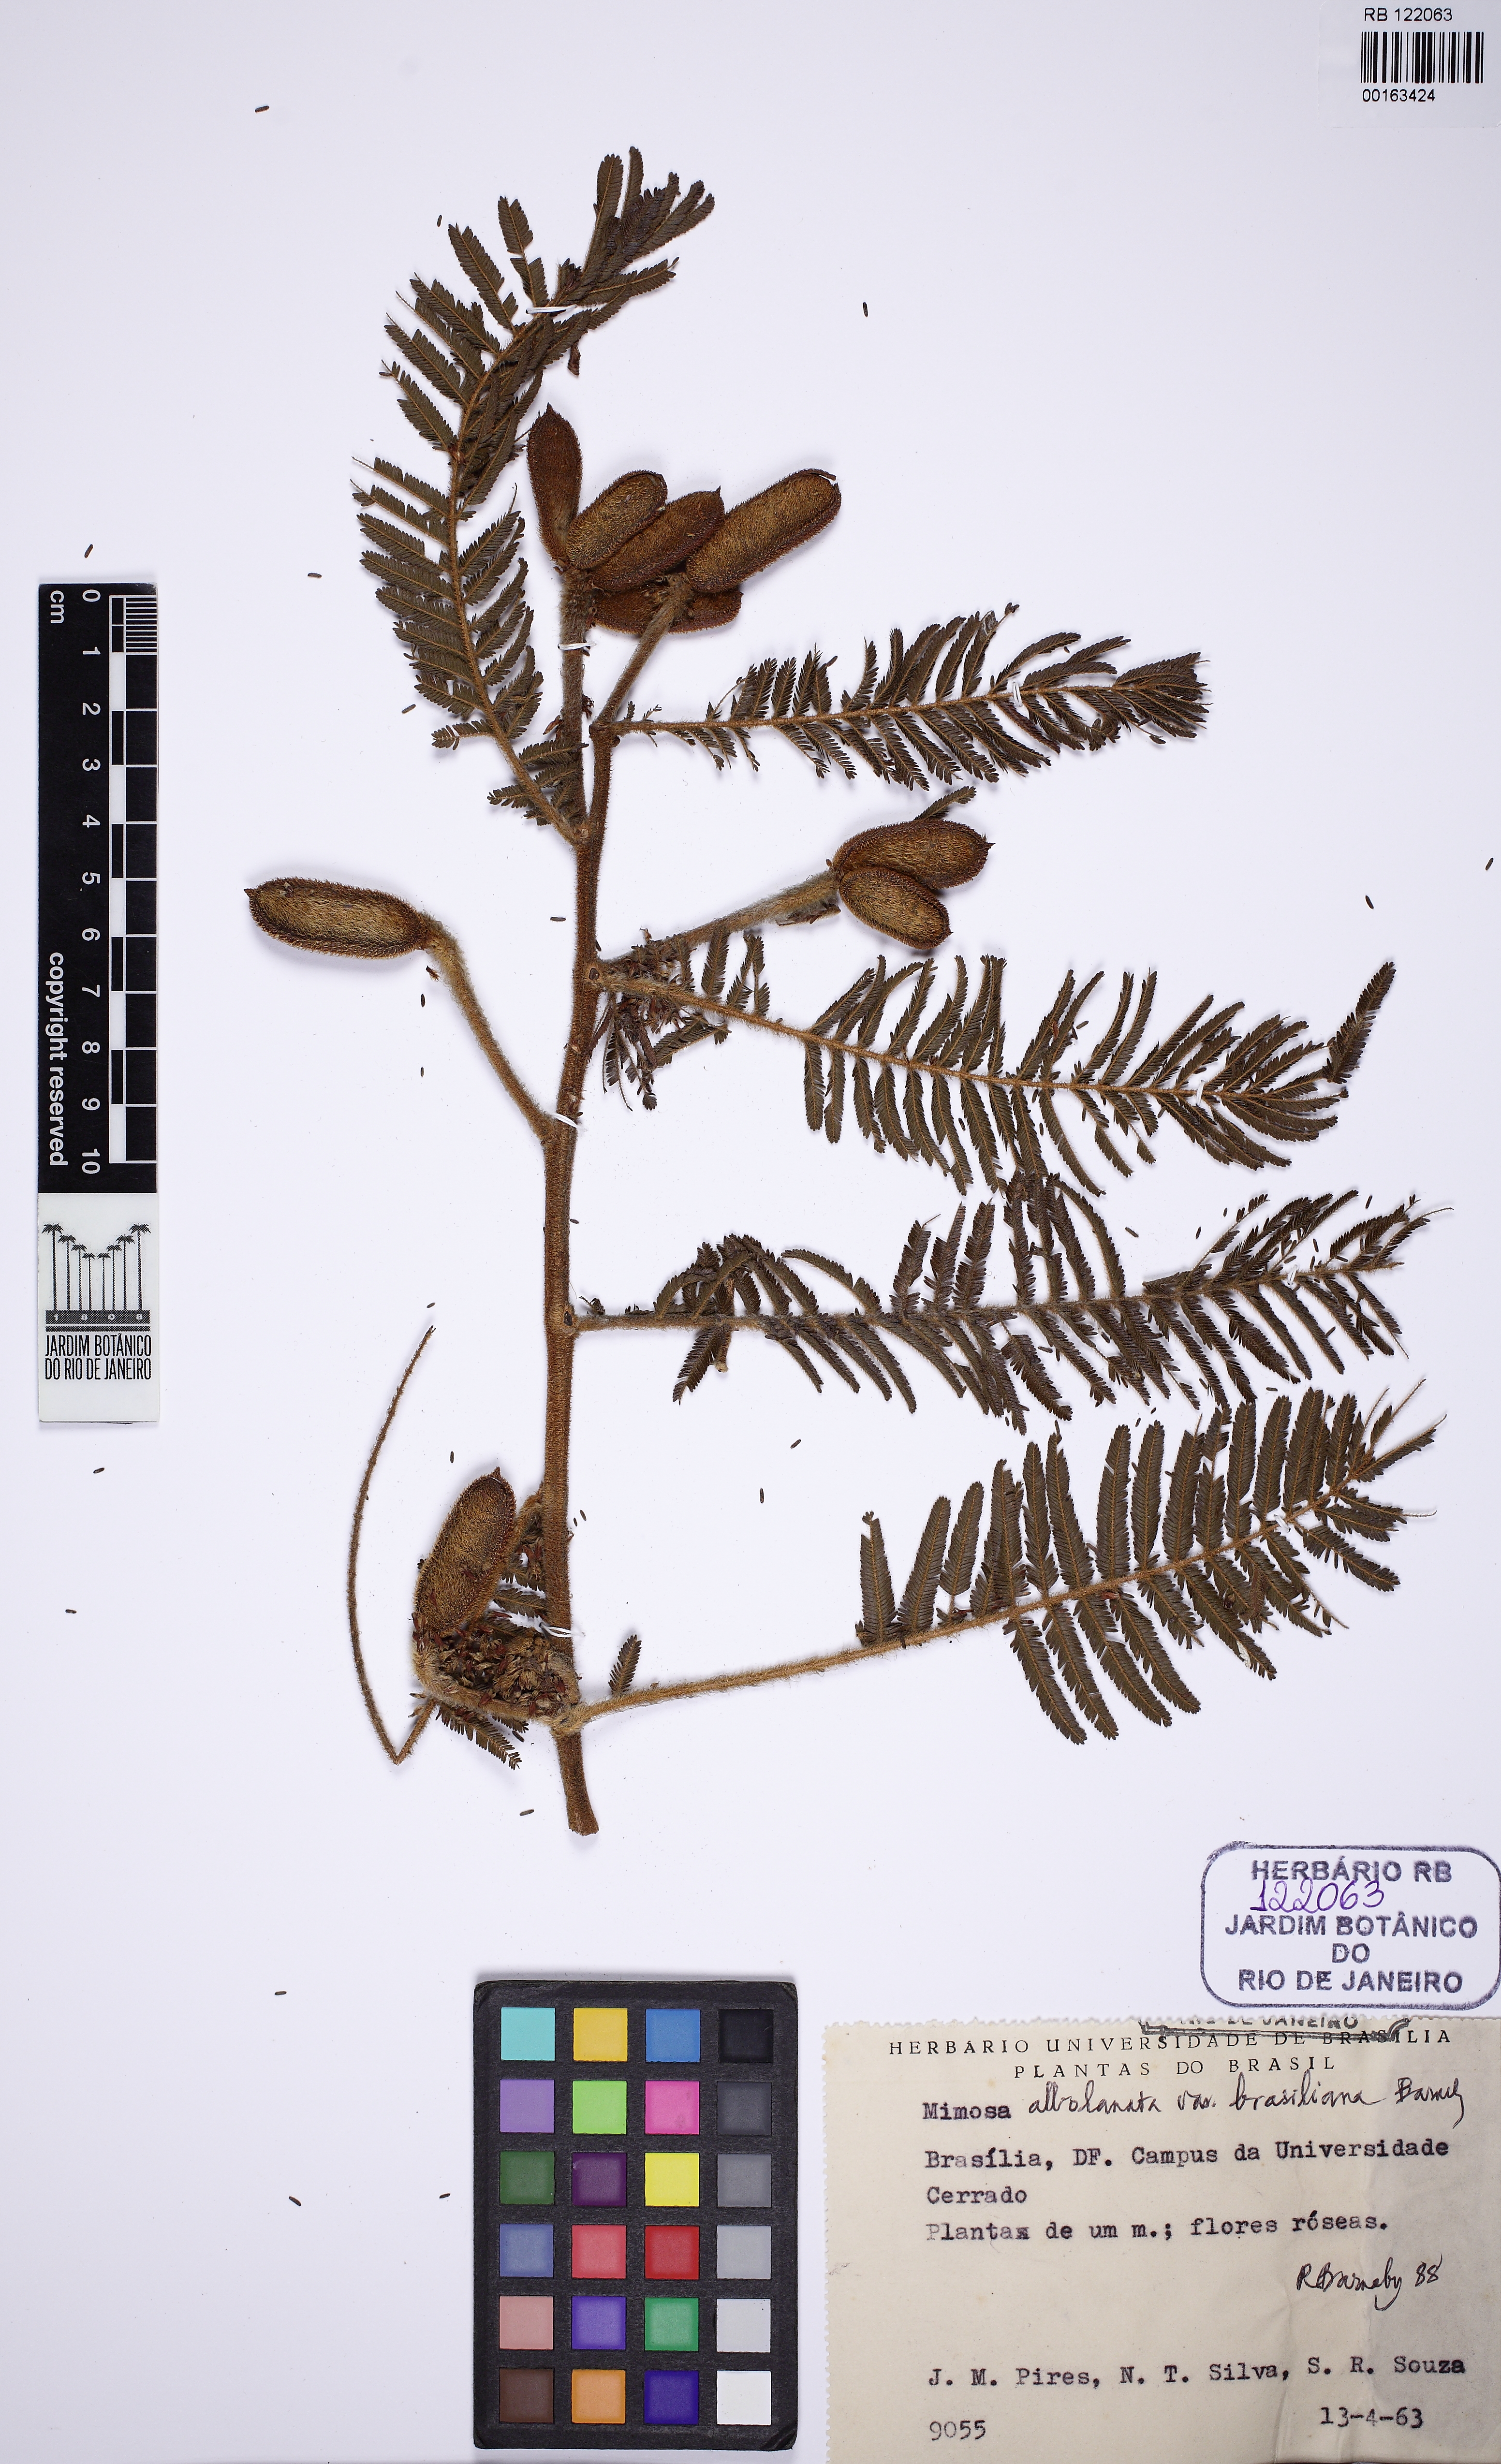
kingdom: Plantae
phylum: Tracheophyta
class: Magnoliopsida
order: Fabales
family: Fabaceae
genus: Mimosa
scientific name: Mimosa albolanata
